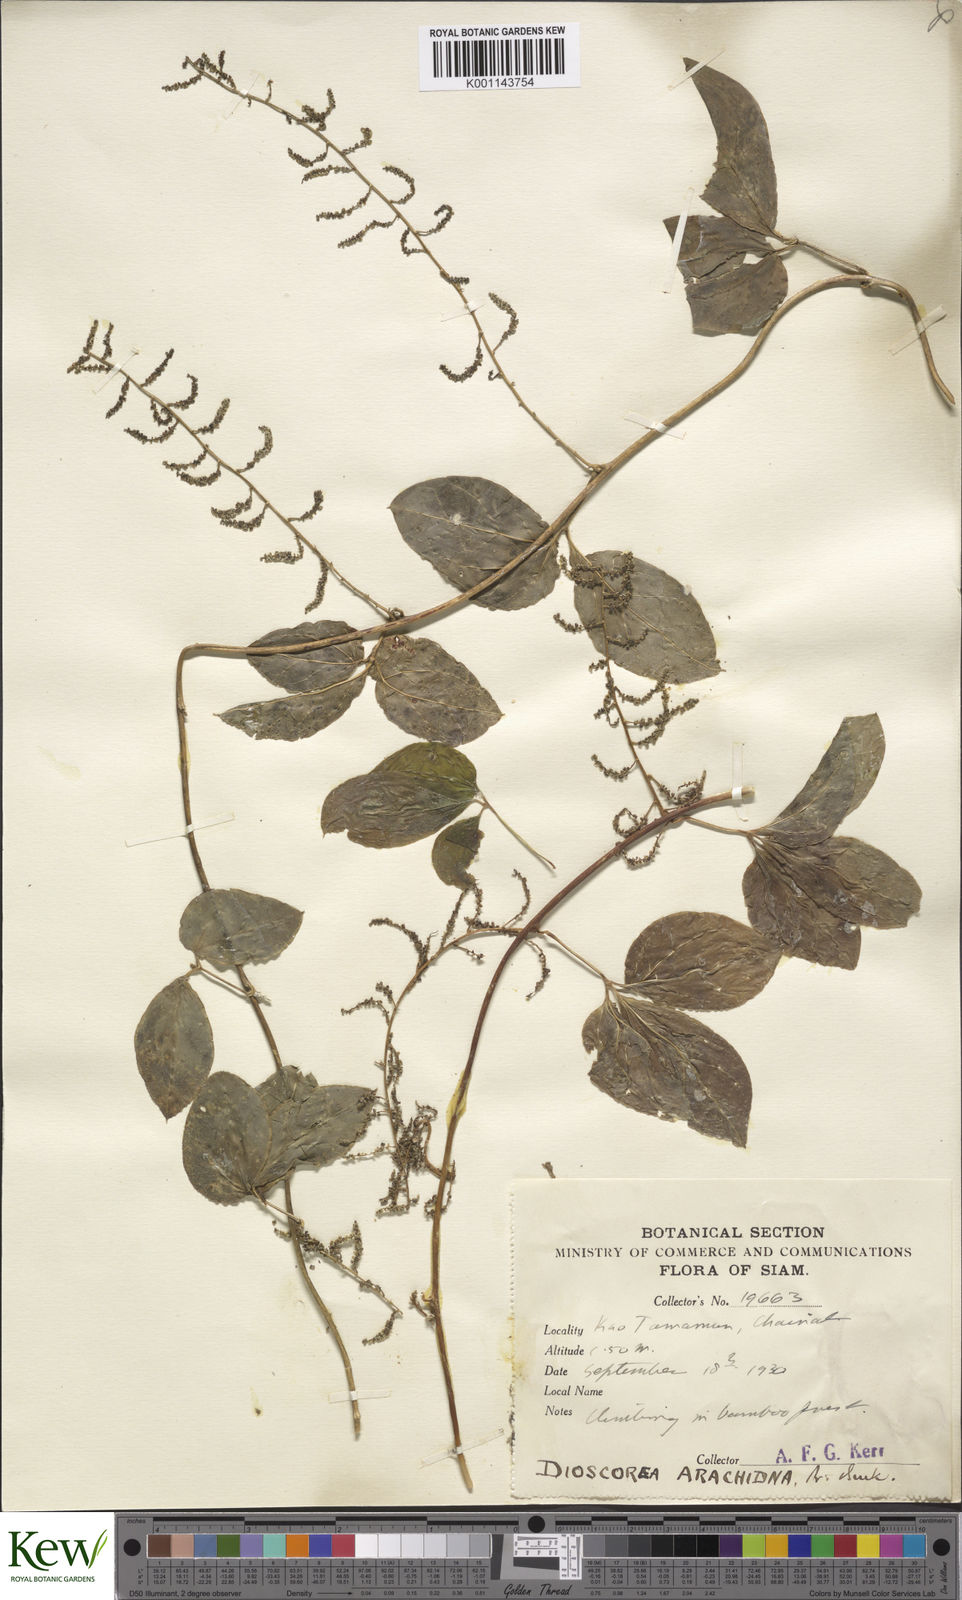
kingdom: Plantae
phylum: Tracheophyta
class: Liliopsida
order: Dioscoreales
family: Dioscoreaceae
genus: Dioscorea
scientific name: Dioscorea pentaphylla
